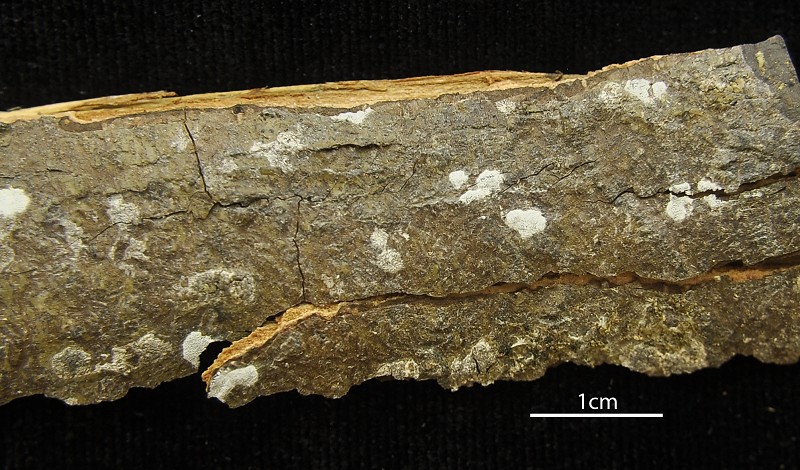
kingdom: Fungi
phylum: Ascomycota
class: Lecanoromycetes
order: Ostropales
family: Graphidaceae
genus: Sarcographa
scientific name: Sarcographa labyrinthica
